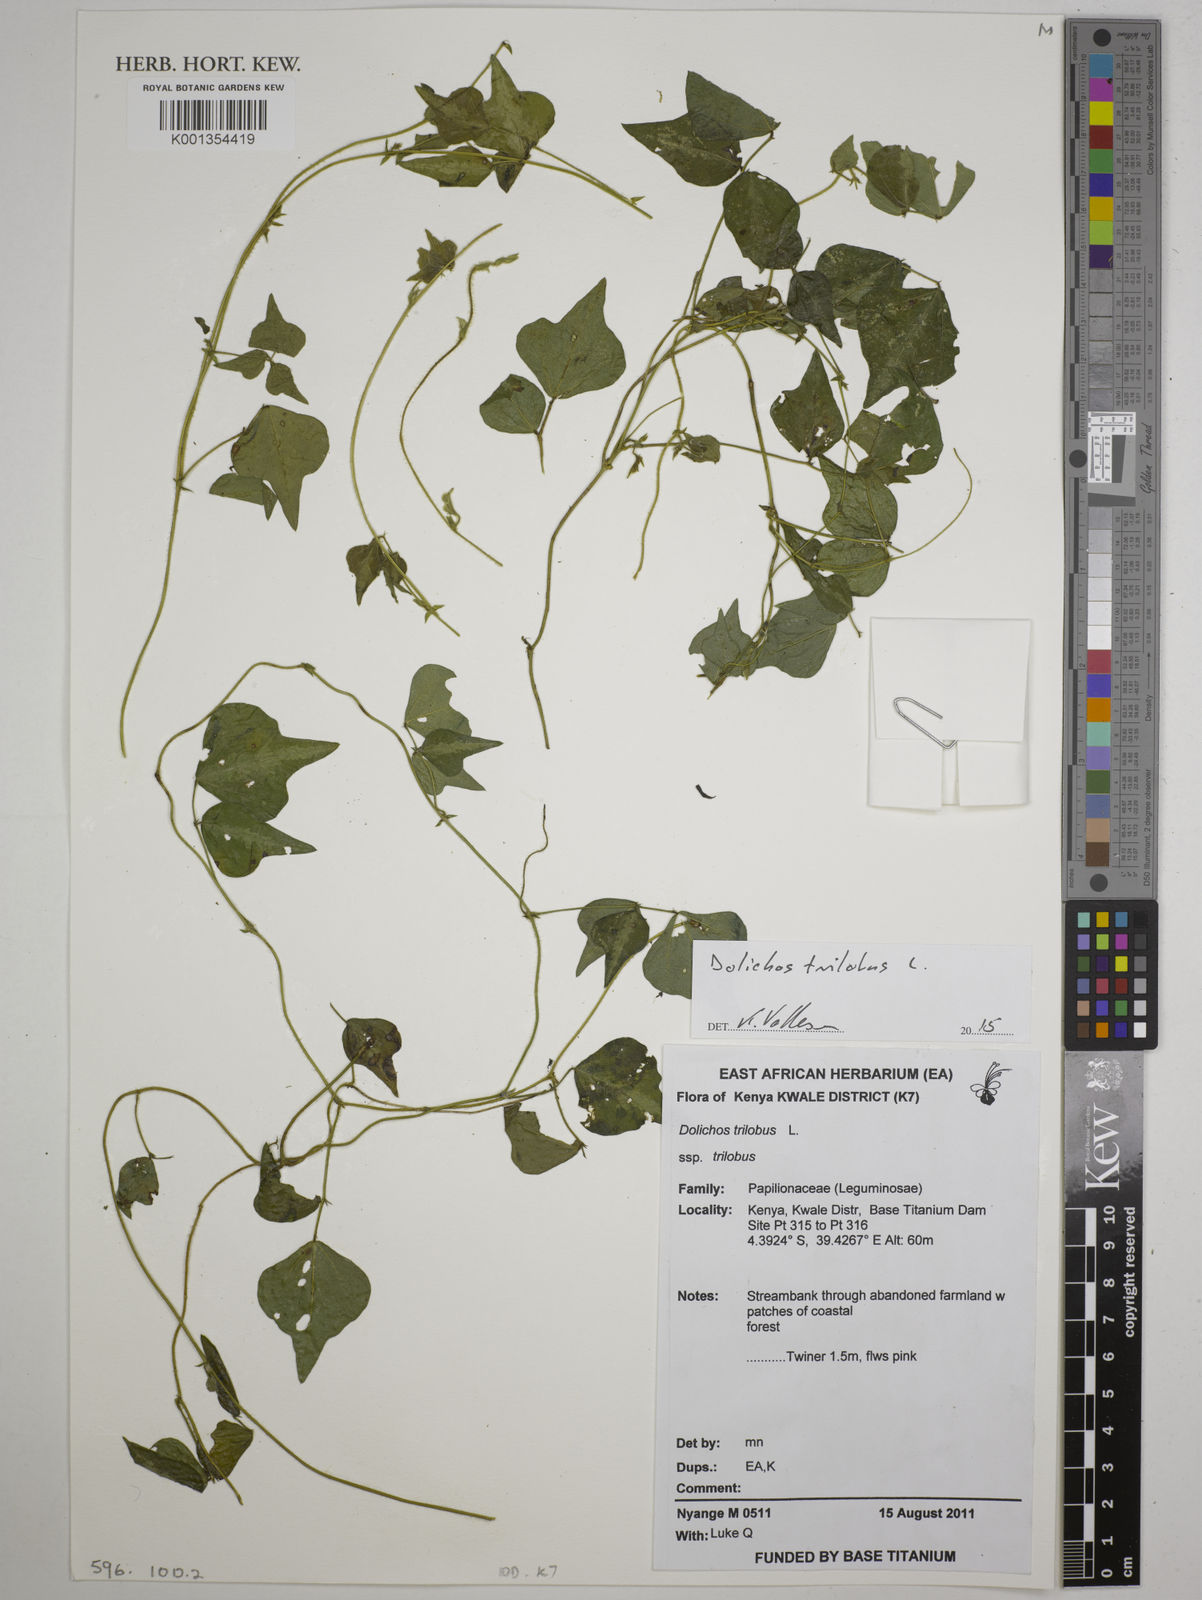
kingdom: Plantae
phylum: Tracheophyta
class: Magnoliopsida
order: Fabales
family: Fabaceae
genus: Dolichos
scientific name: Dolichos
